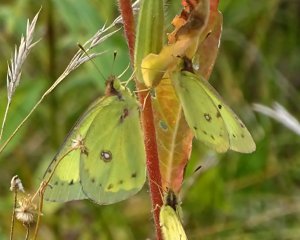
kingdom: Animalia
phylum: Arthropoda
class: Insecta
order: Lepidoptera
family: Pieridae
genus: Colias
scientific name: Colias philodice
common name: Clouded Sulphur
